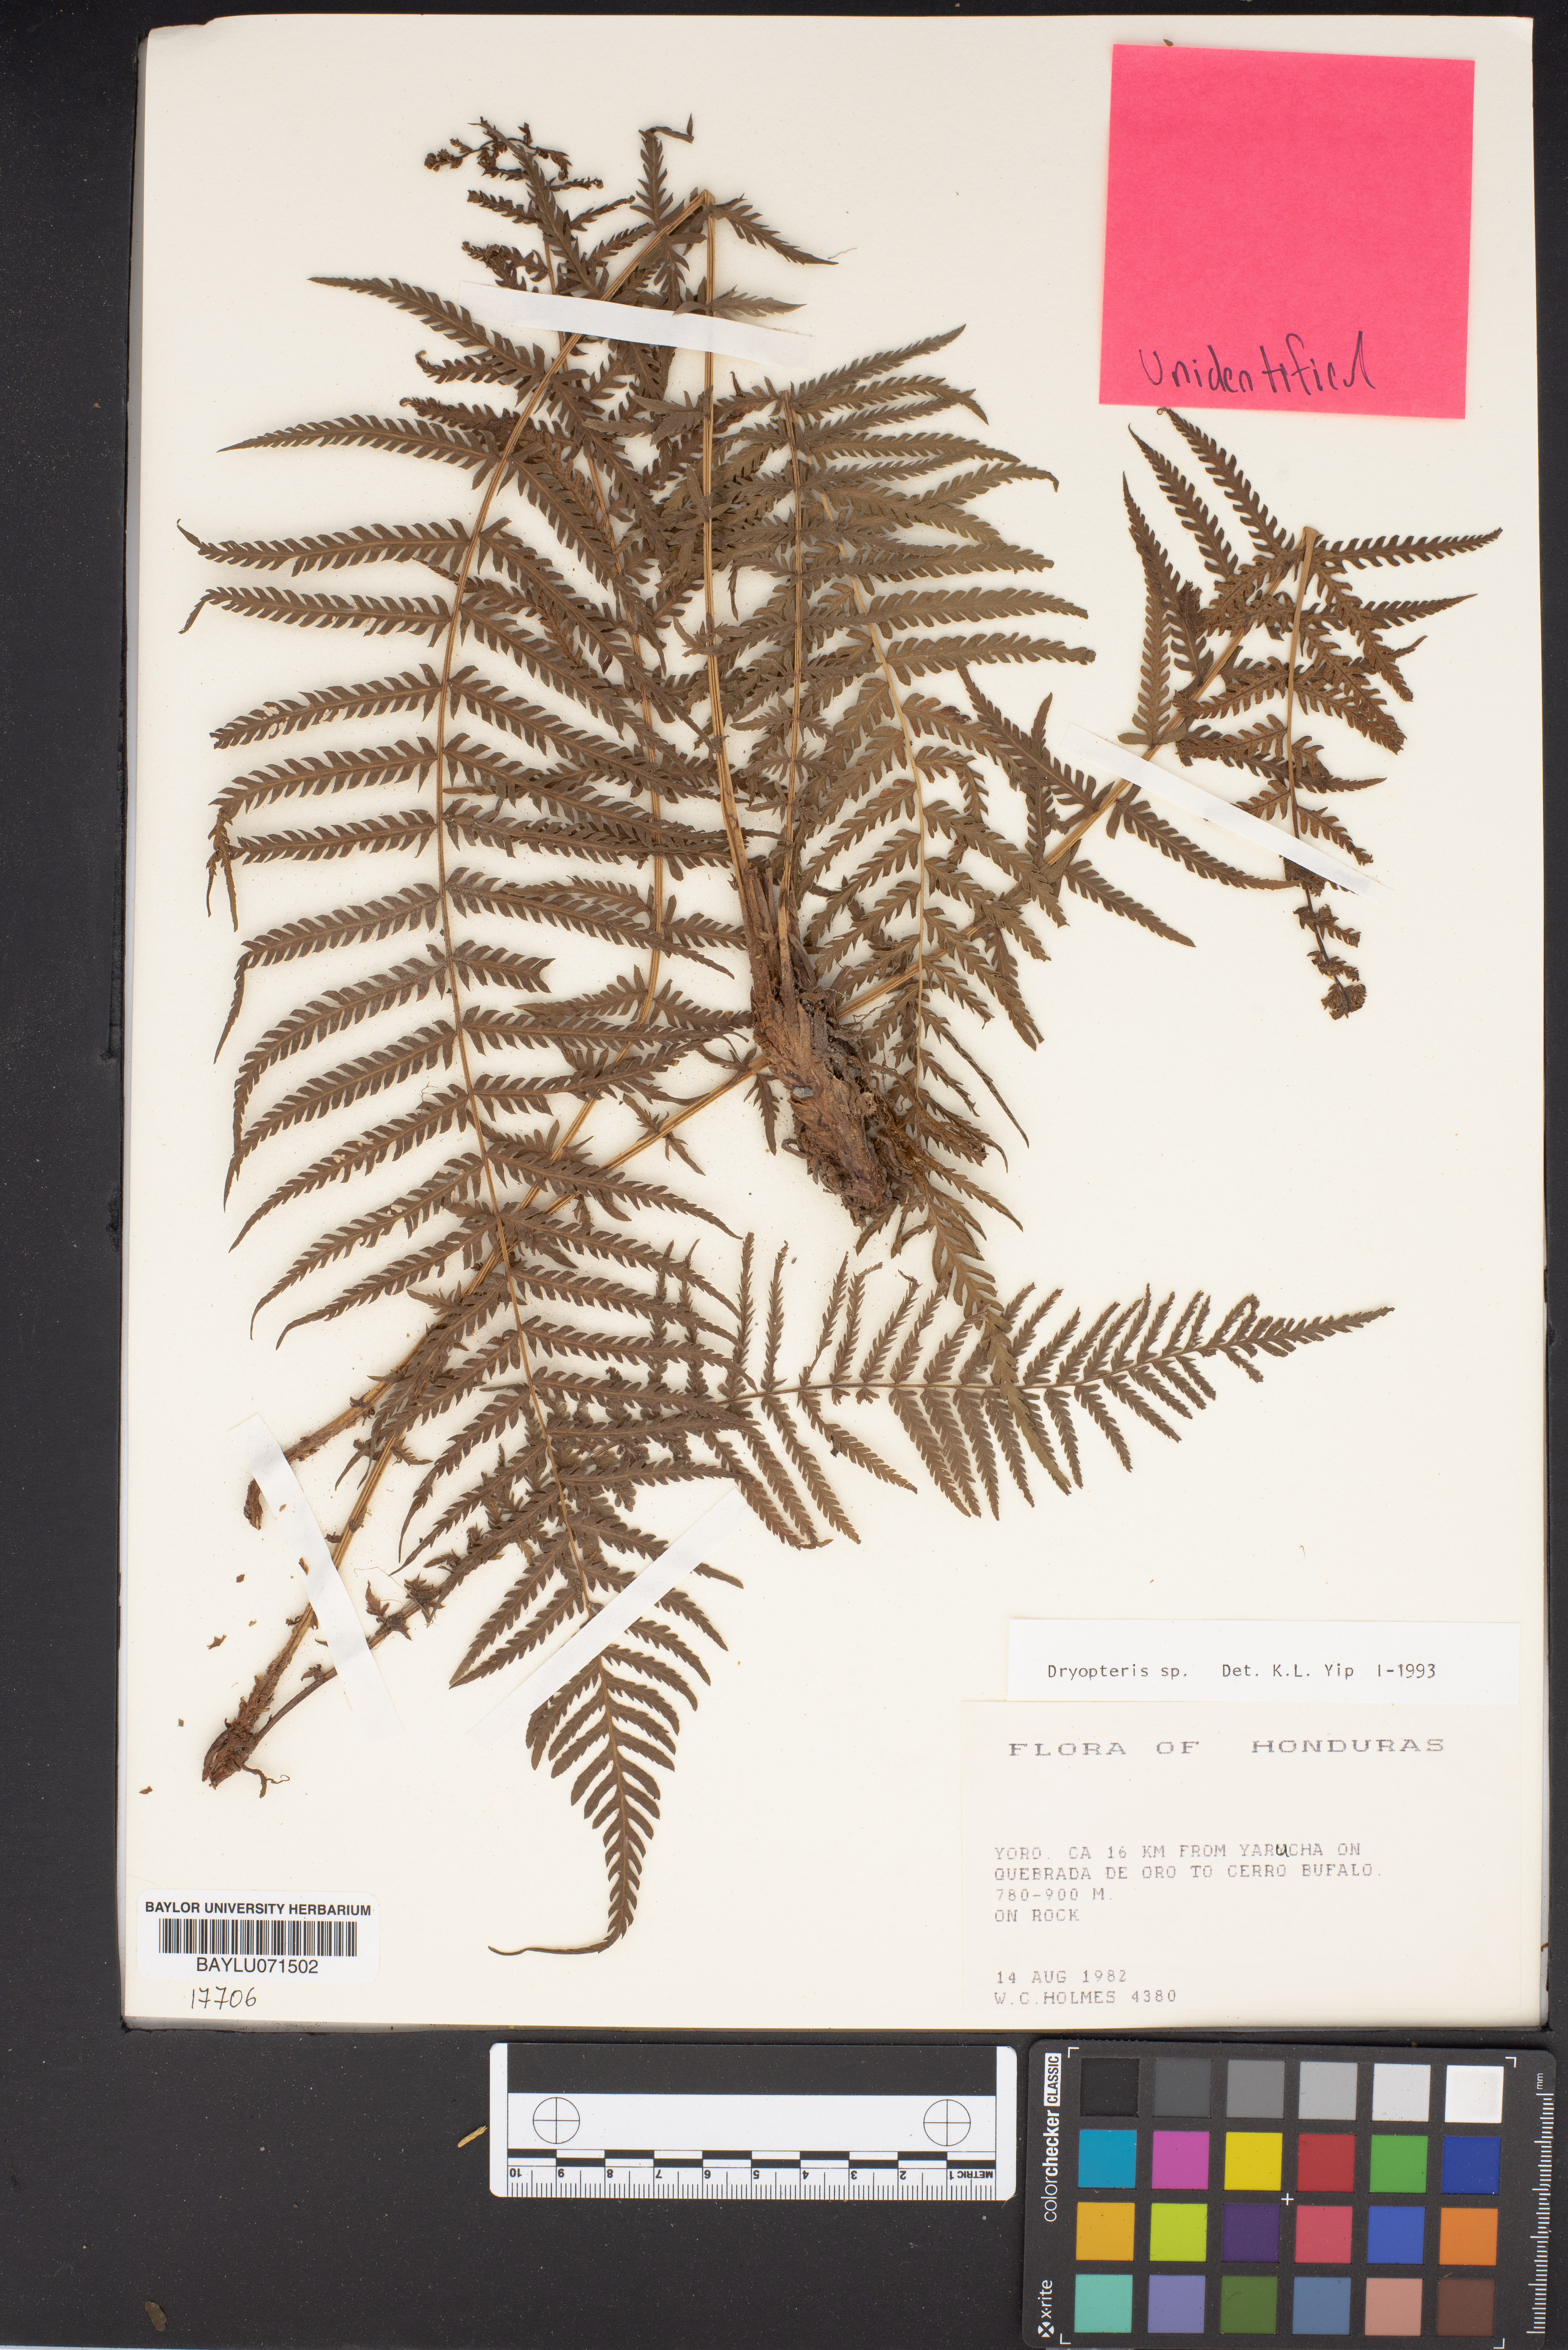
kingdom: Plantae
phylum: Tracheophyta
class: Polypodiopsida
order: Polypodiales
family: Dryopteridaceae
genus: Dryopteris
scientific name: Dryopteris
